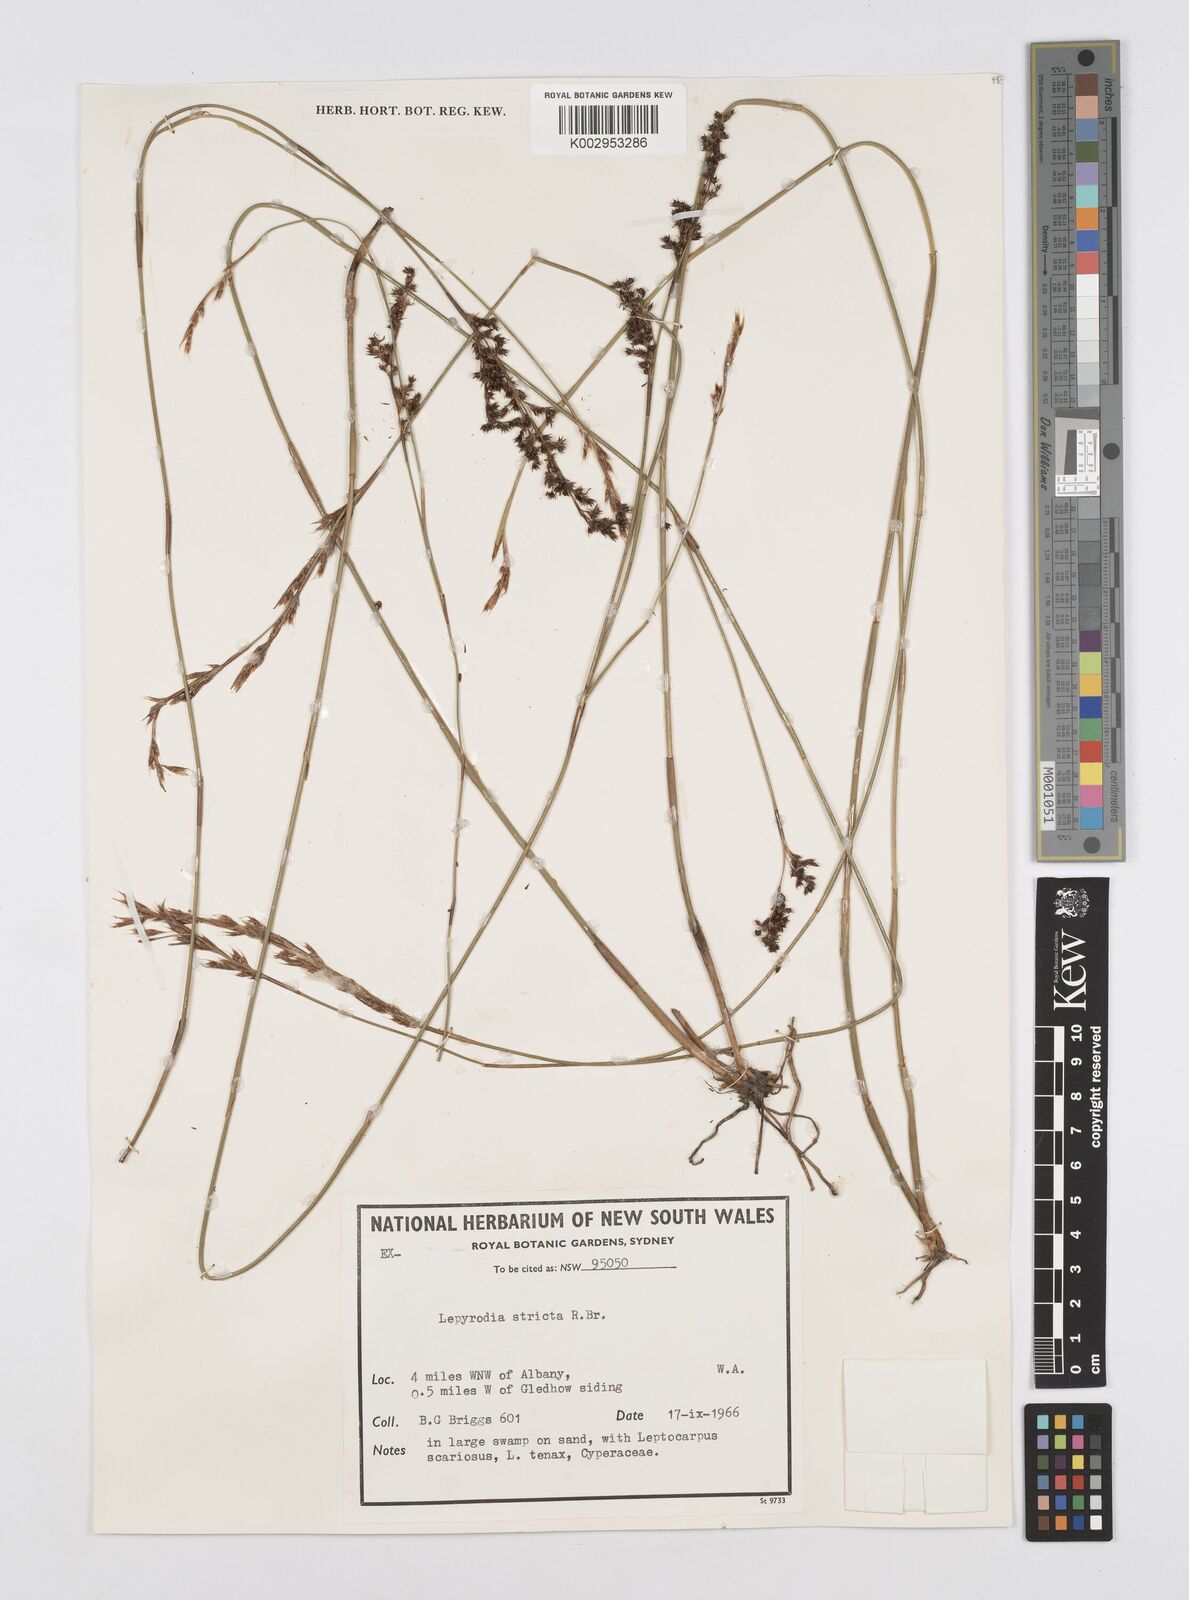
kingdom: Plantae
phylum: Tracheophyta
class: Liliopsida
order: Poales
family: Restionaceae
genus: Sporadanthus
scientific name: Sporadanthus strictus
